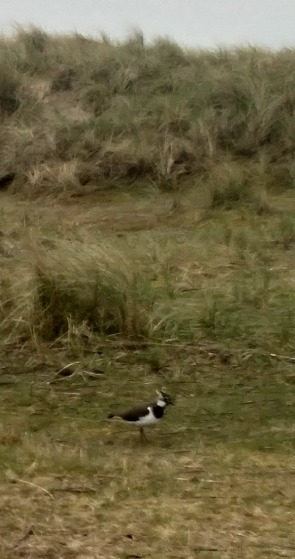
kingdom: Animalia
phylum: Chordata
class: Aves
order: Charadriiformes
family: Charadriidae
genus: Vanellus
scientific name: Vanellus vanellus
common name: Vibe
